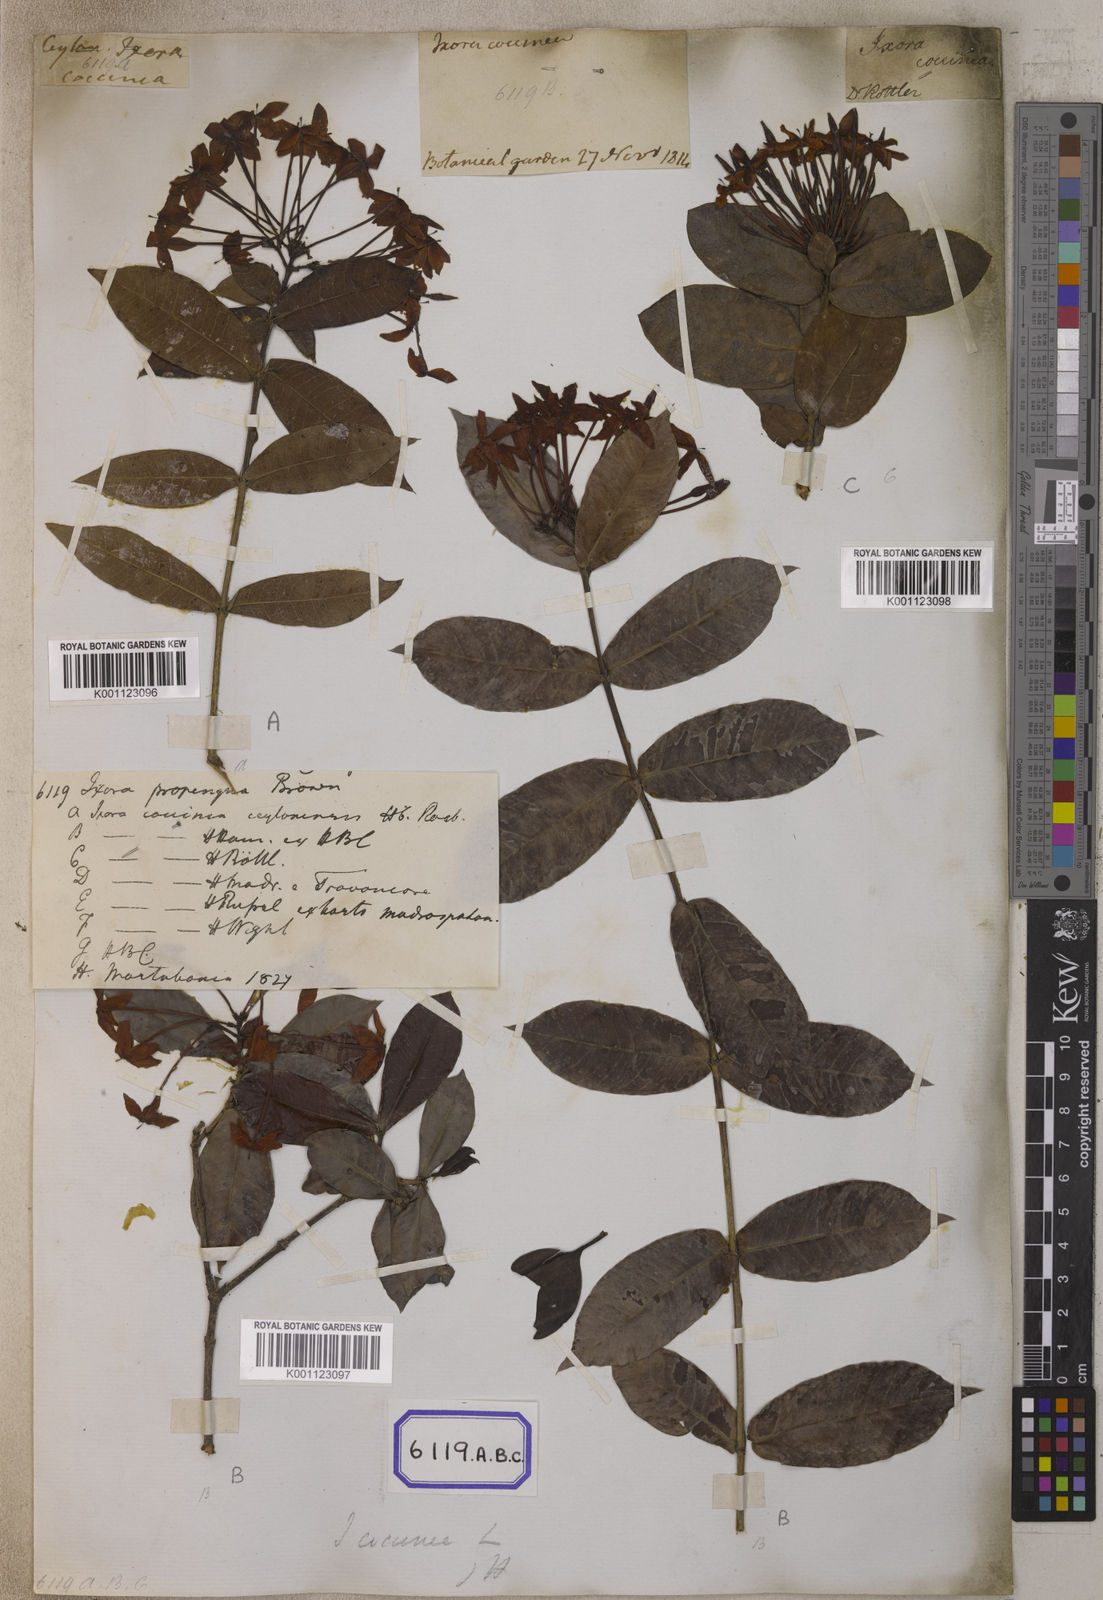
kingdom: Plantae
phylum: Tracheophyta
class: Magnoliopsida
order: Gentianales
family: Rubiaceae
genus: Ixora
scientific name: Ixora
